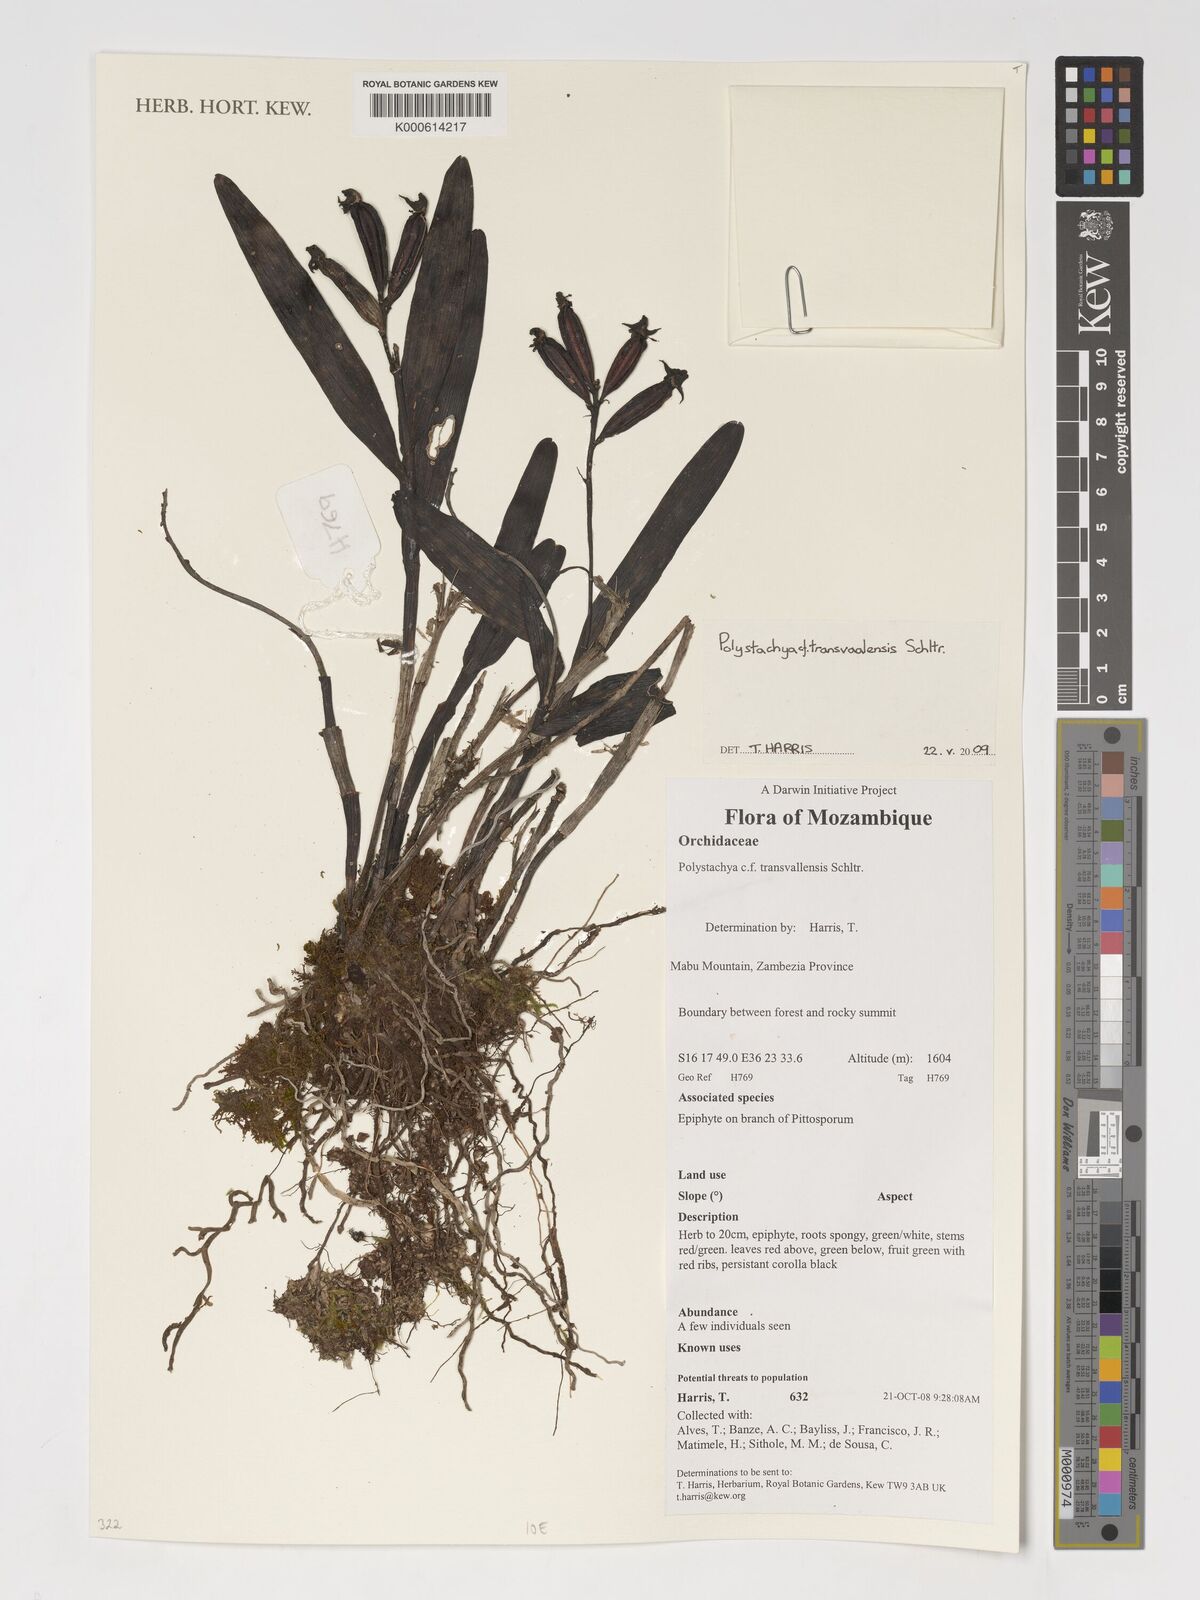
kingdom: Plantae
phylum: Tracheophyta
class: Liliopsida
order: Asparagales
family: Orchidaceae
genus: Polystachya
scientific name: Polystachya transvaalensis
